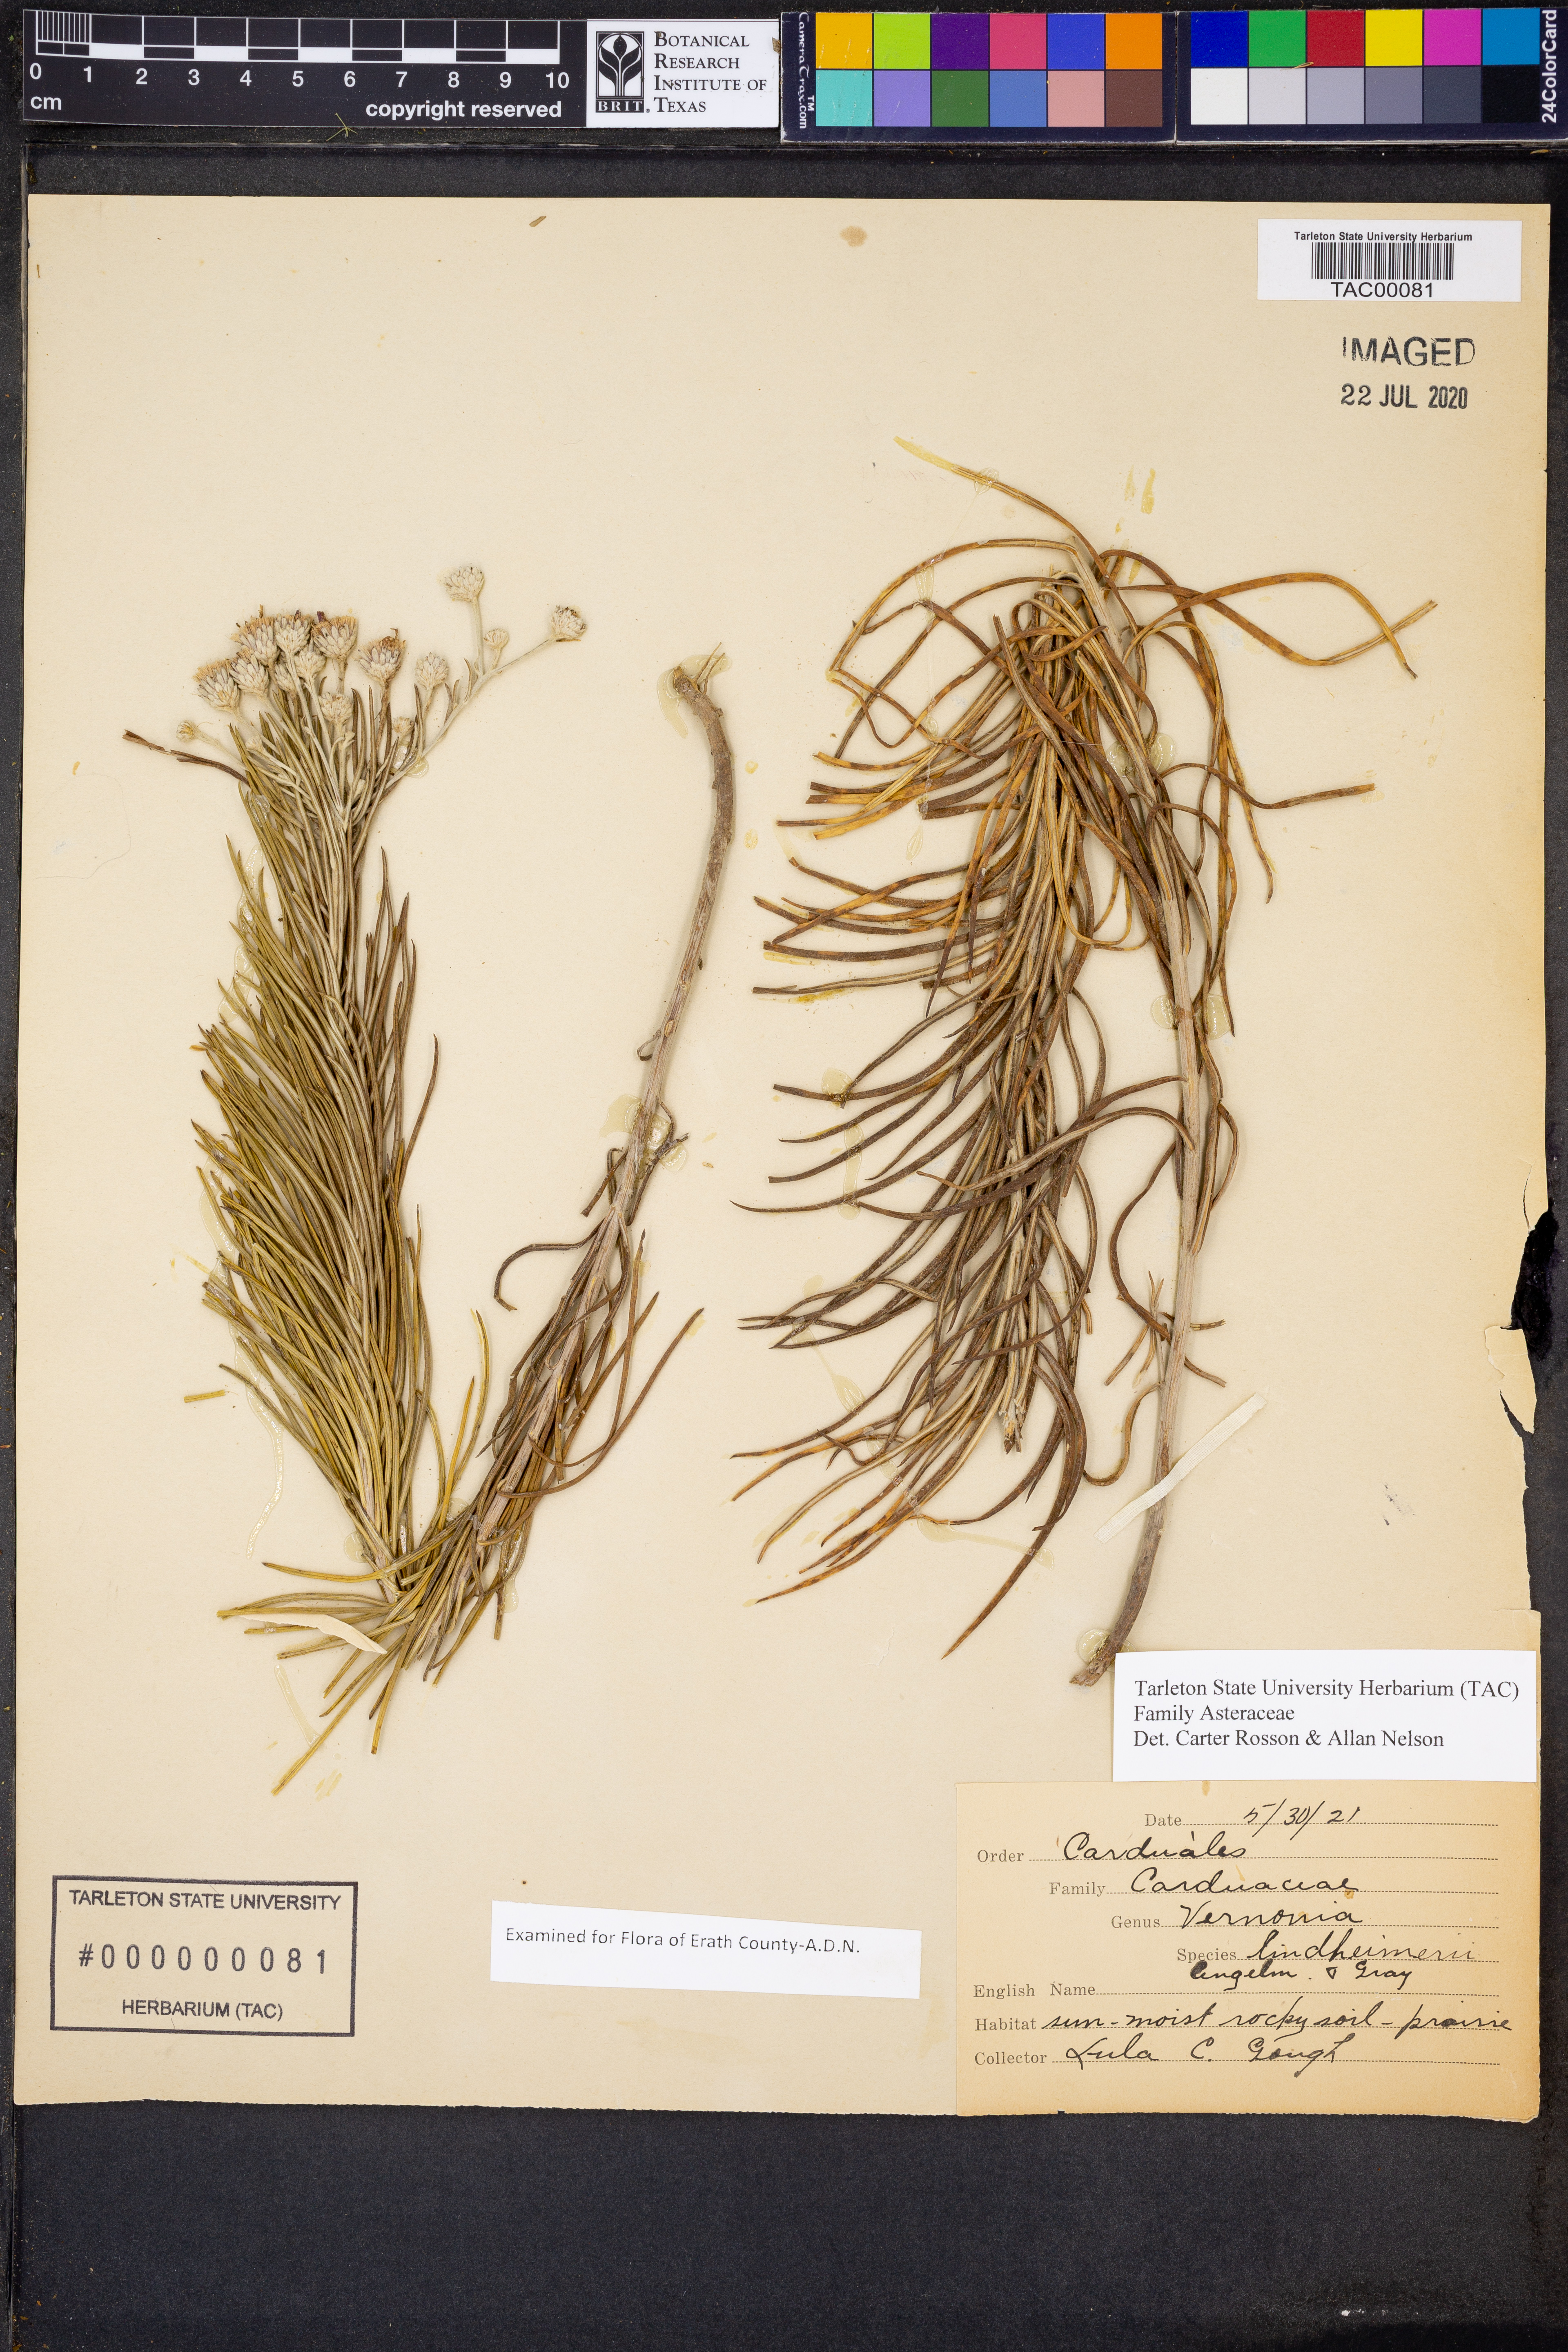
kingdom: Plantae
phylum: Tracheophyta
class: Magnoliopsida
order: Asterales
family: Asteraceae
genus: Vernonia
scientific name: Vernonia lindheimeri
